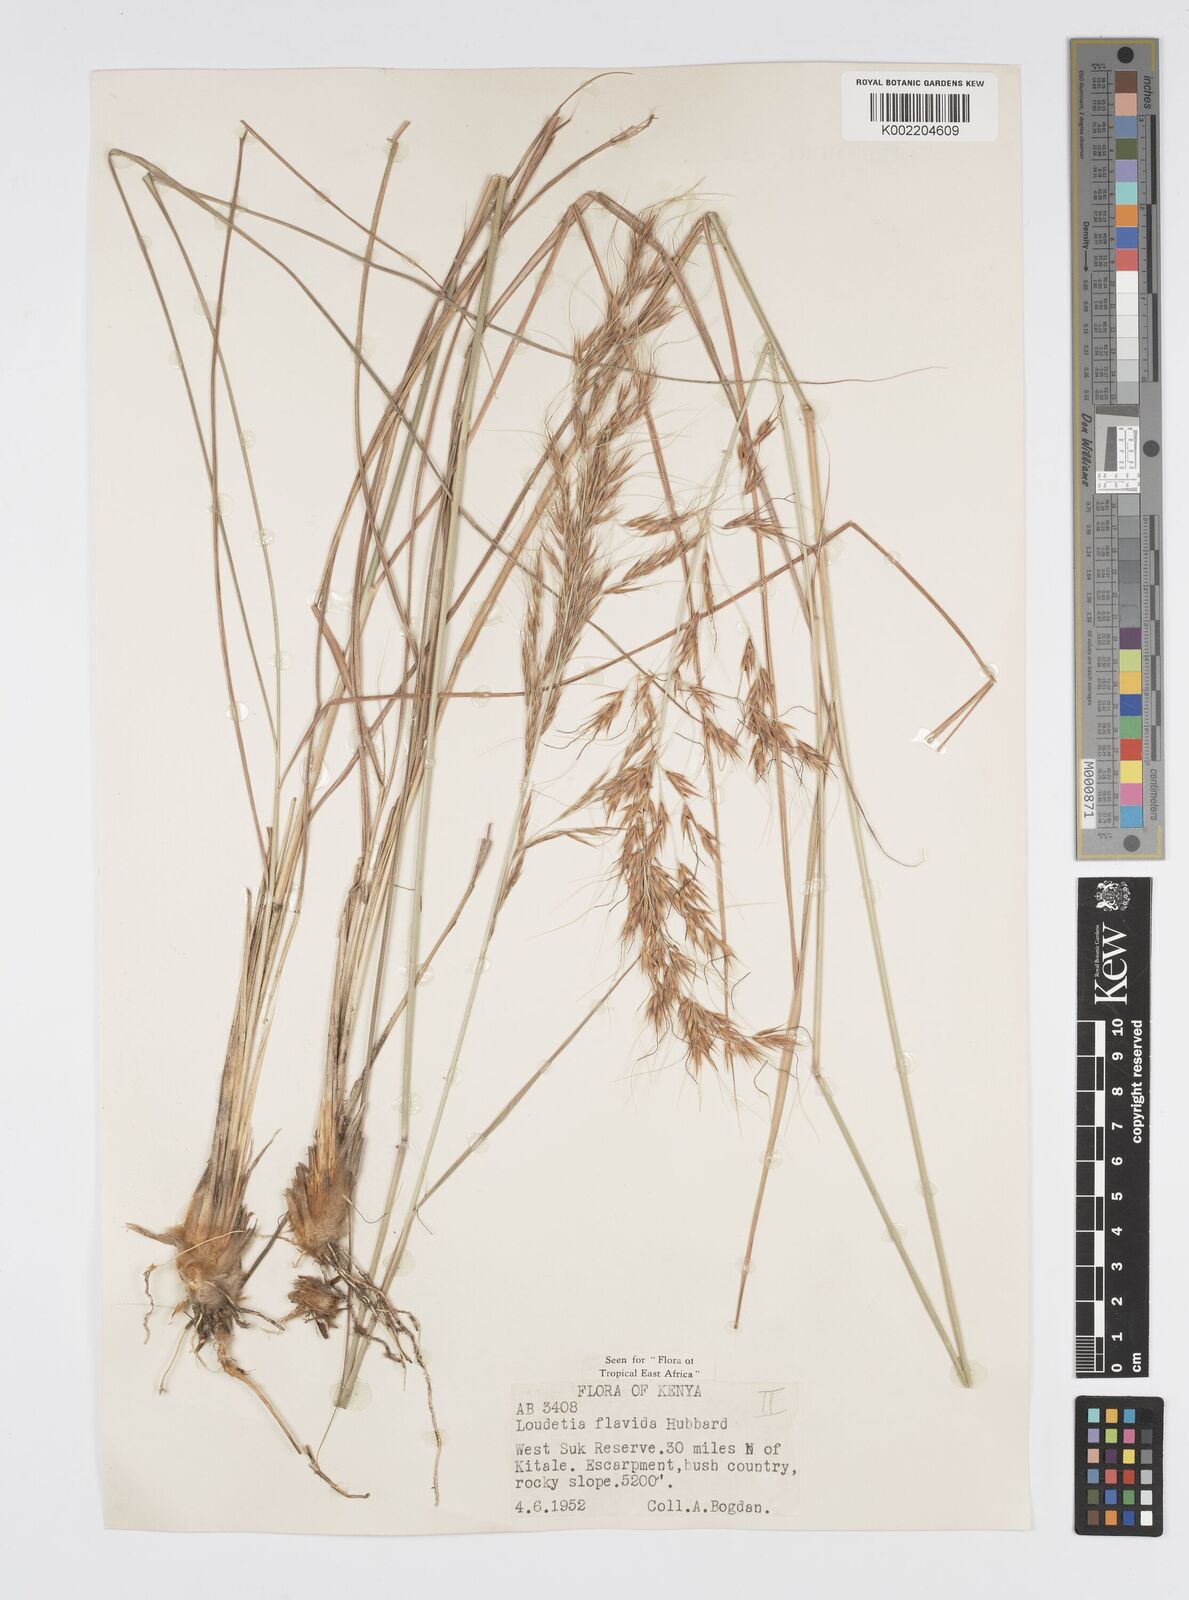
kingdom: Plantae
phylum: Tracheophyta
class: Liliopsida
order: Poales
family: Poaceae
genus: Loudetia
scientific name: Loudetia flavida
